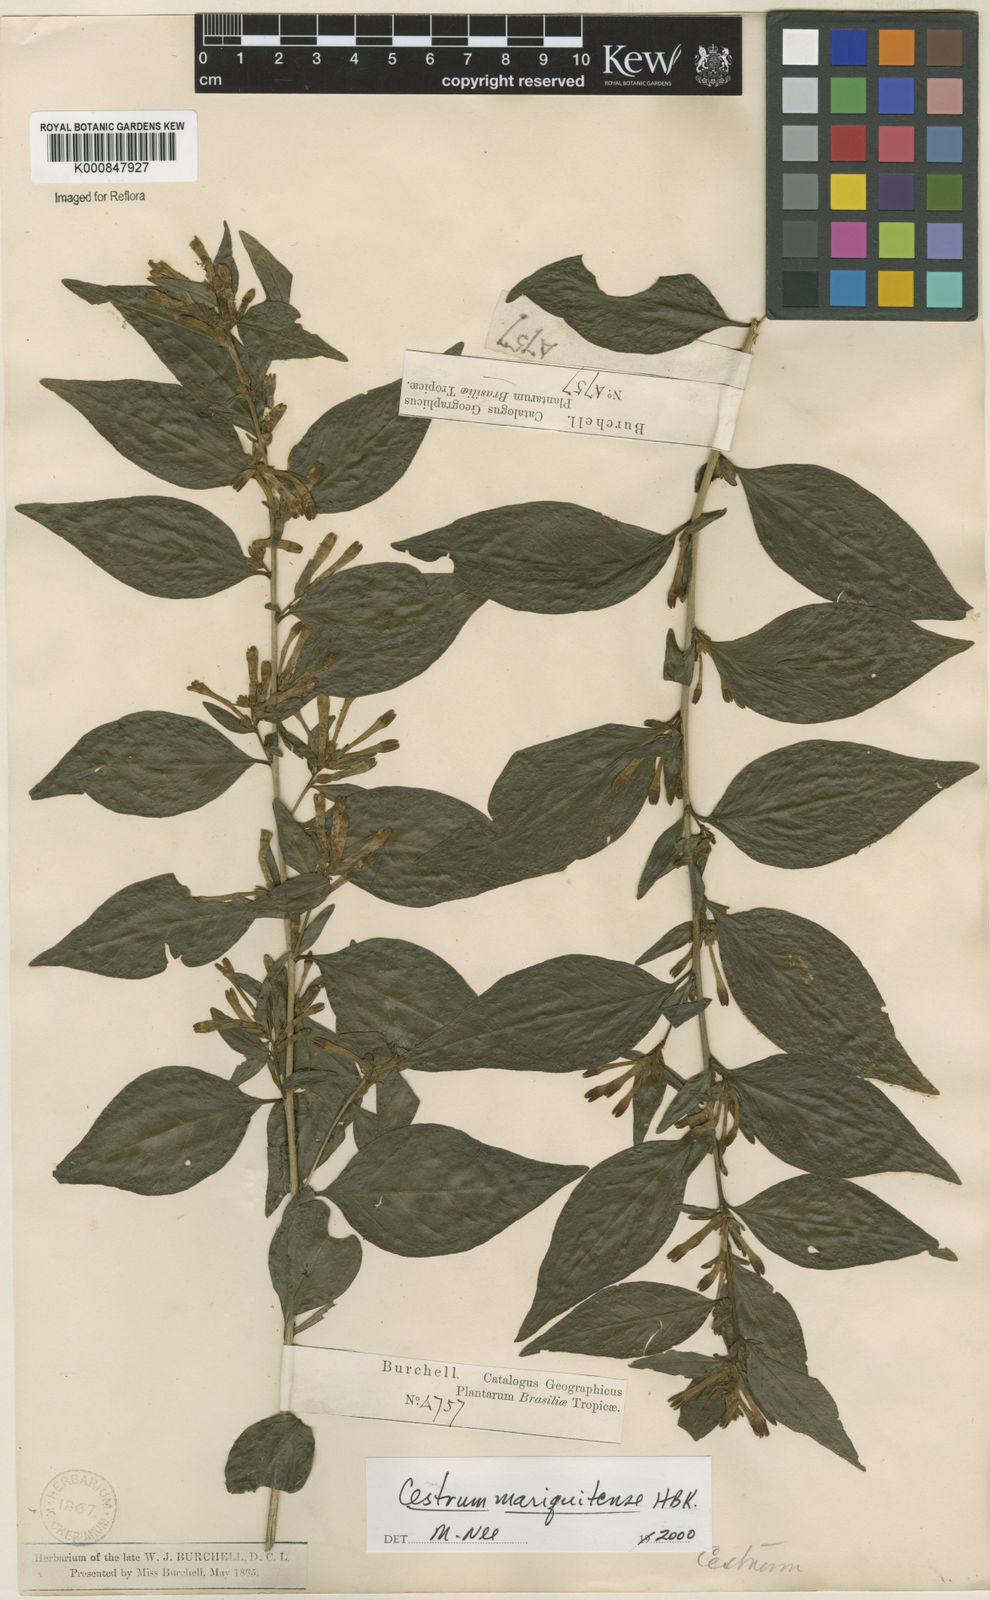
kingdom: Plantae
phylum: Tracheophyta
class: Magnoliopsida
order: Solanales
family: Solanaceae
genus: Cestrum
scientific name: Cestrum mariquitense
